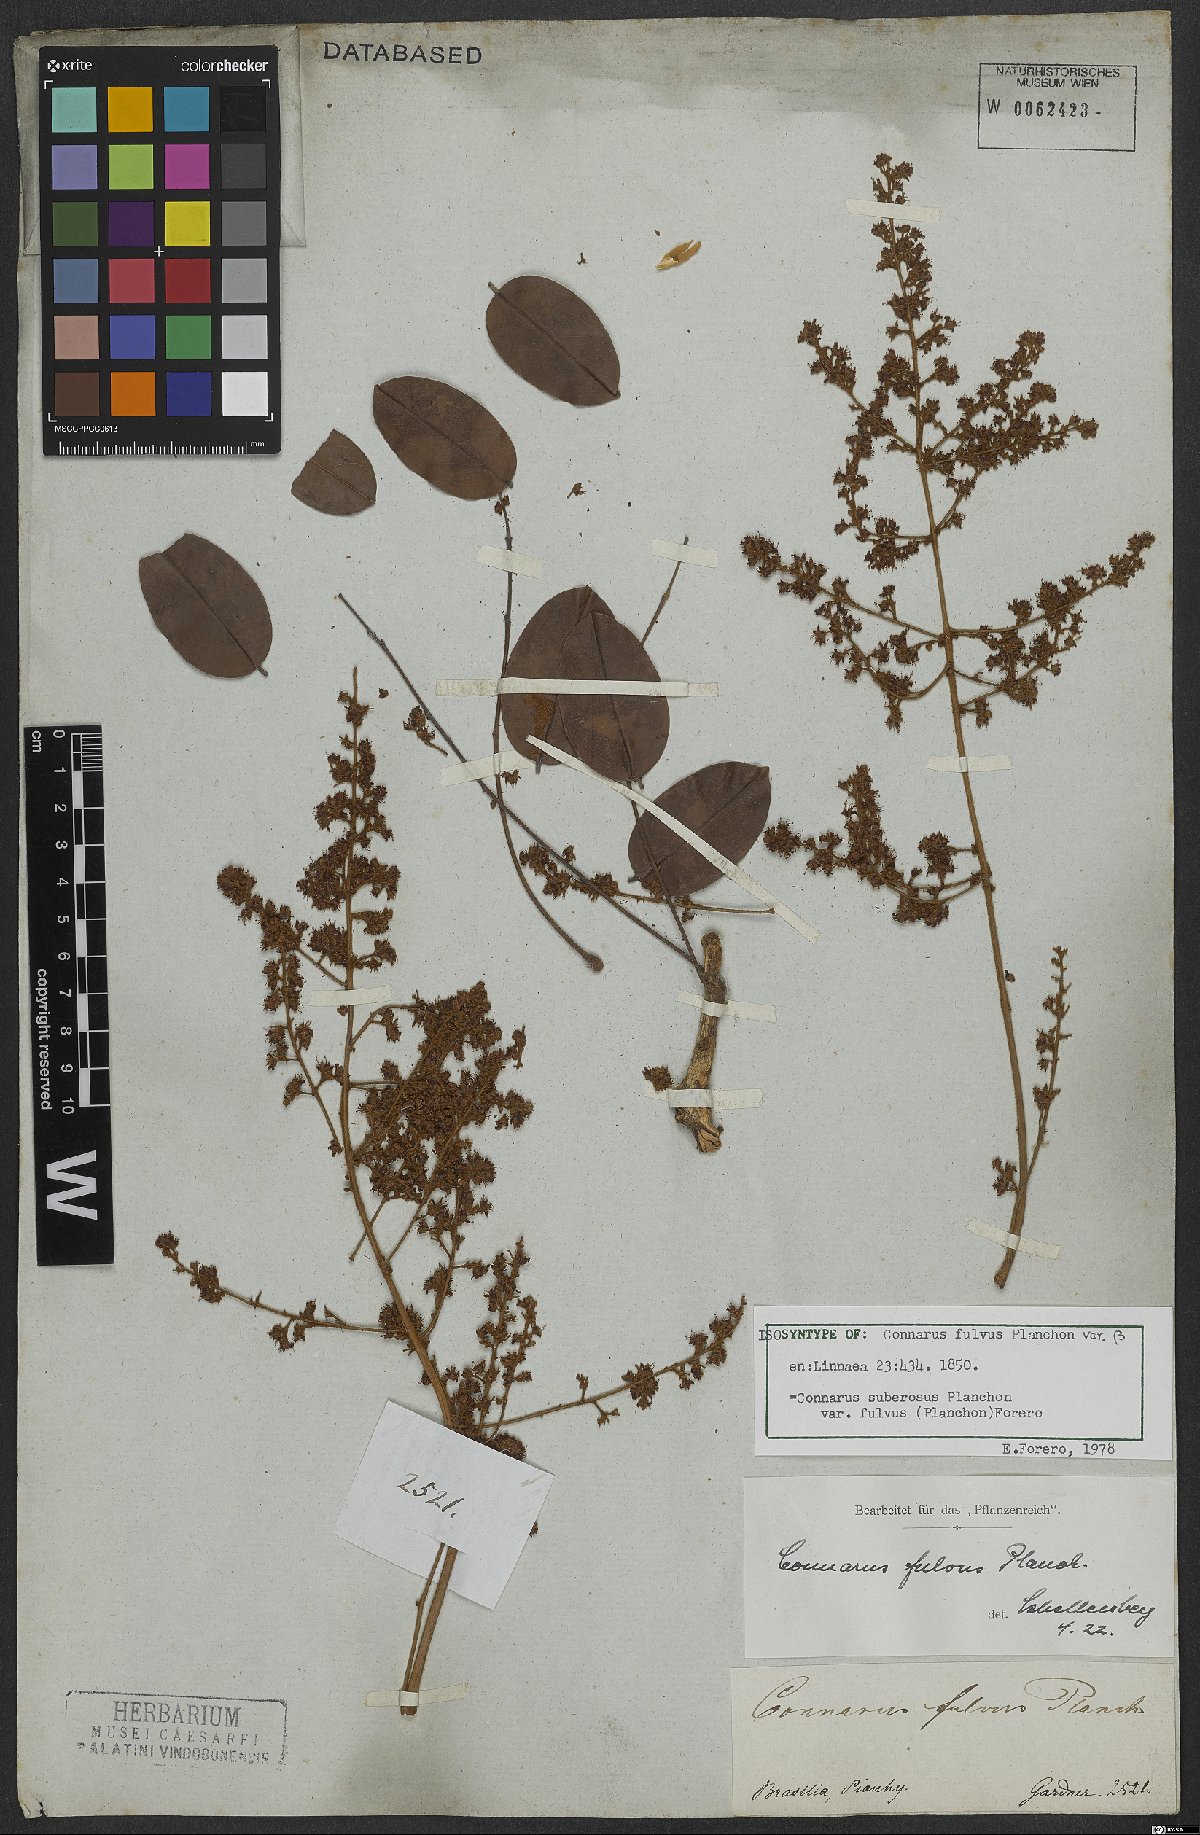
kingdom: Plantae
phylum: Tracheophyta
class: Magnoliopsida
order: Oxalidales
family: Connaraceae
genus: Connarus
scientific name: Connarus suberosus
